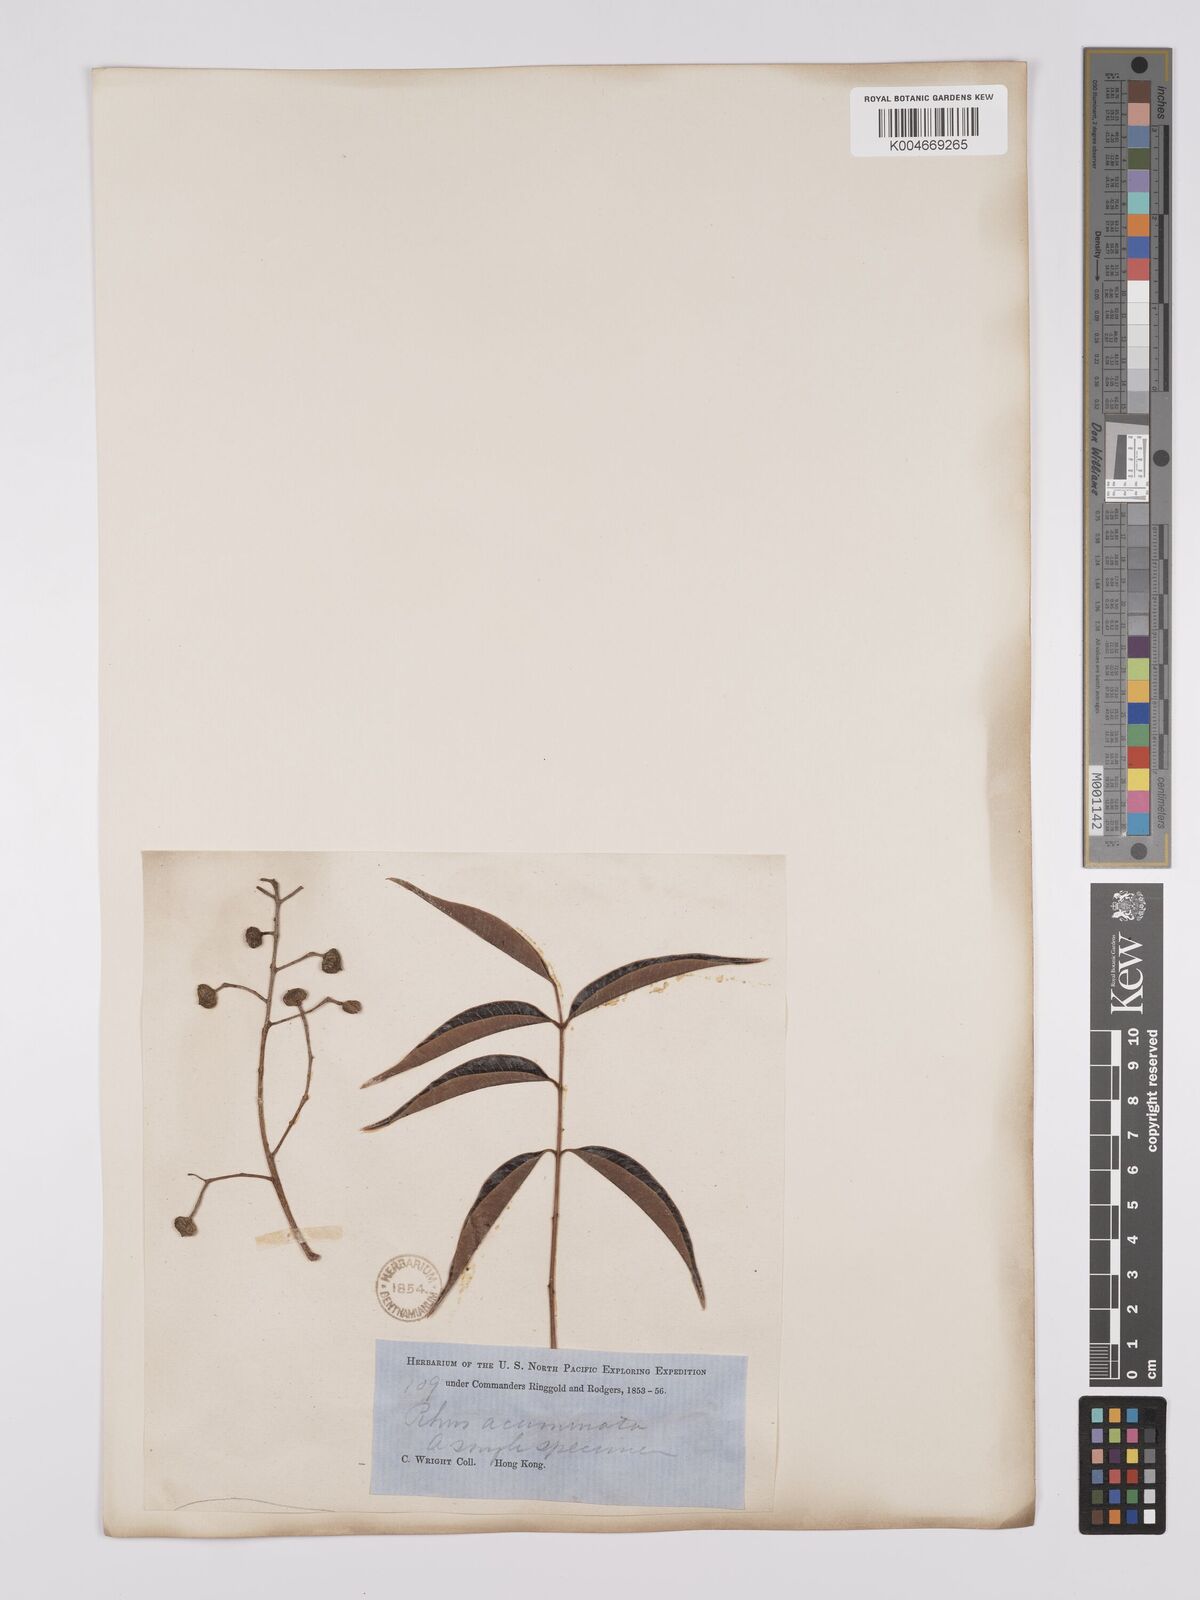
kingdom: Plantae
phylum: Tracheophyta
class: Magnoliopsida
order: Sapindales
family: Anacardiaceae
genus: Toxicodendron
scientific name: Toxicodendron succedaneum
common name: Wax tree
